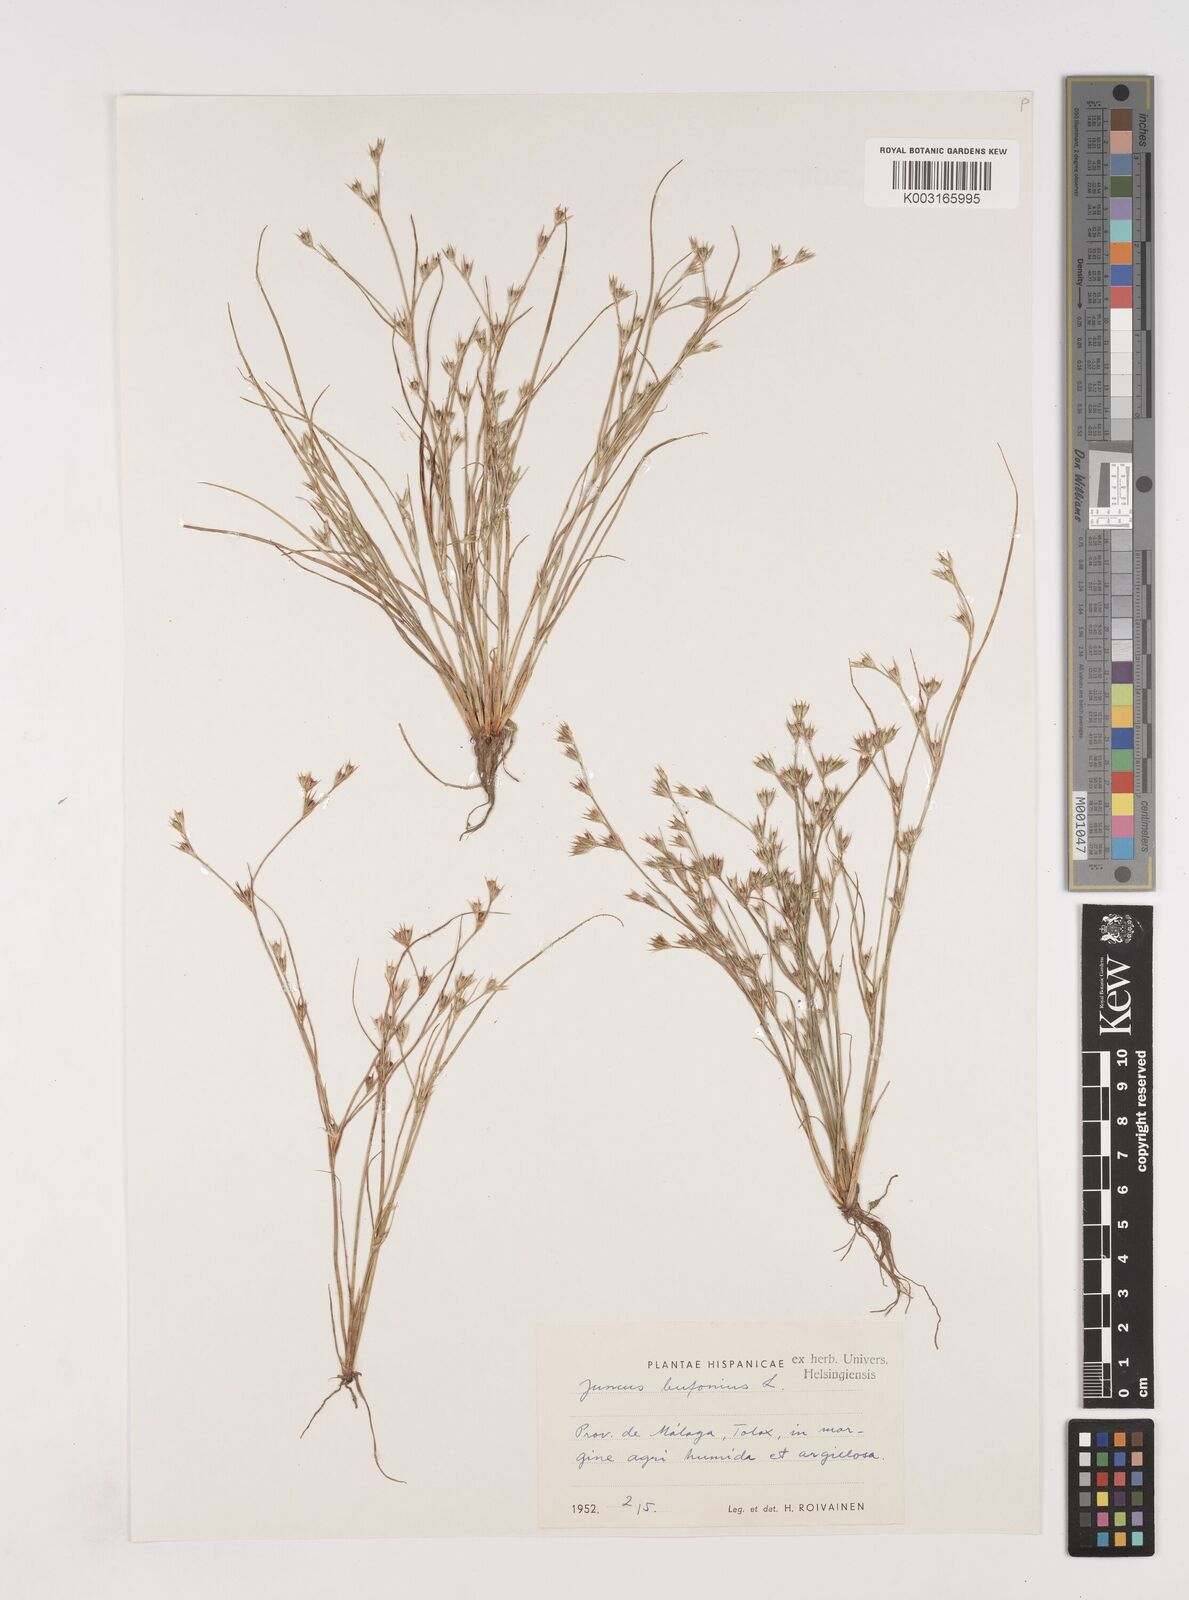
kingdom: Plantae
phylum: Tracheophyta
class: Liliopsida
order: Poales
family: Juncaceae
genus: Juncus
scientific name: Juncus bufonius
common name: Toad rush
